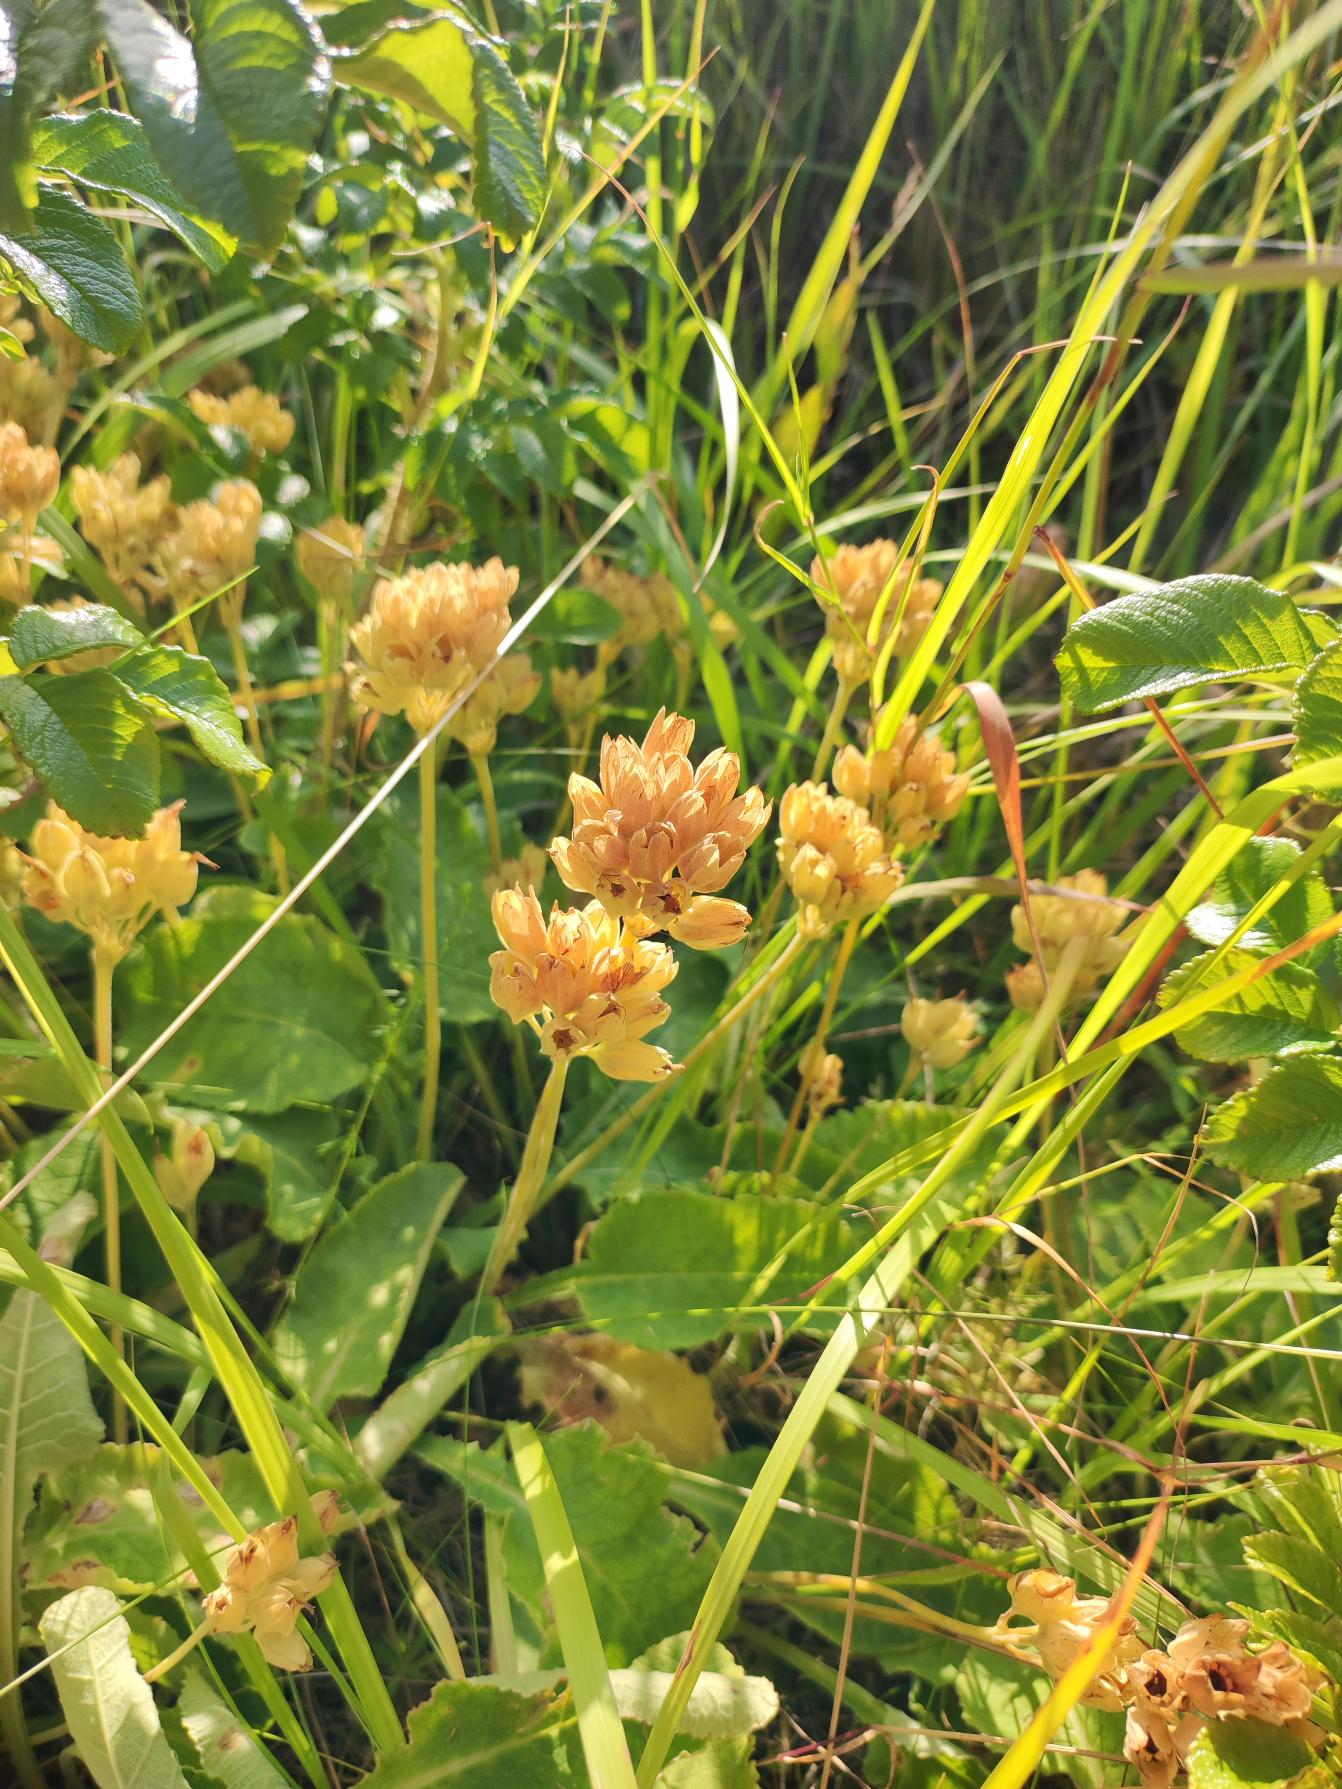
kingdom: Plantae
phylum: Tracheophyta
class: Magnoliopsida
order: Ericales
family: Primulaceae
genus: Primula
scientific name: Primula veris
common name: Hulkravet kodriver
